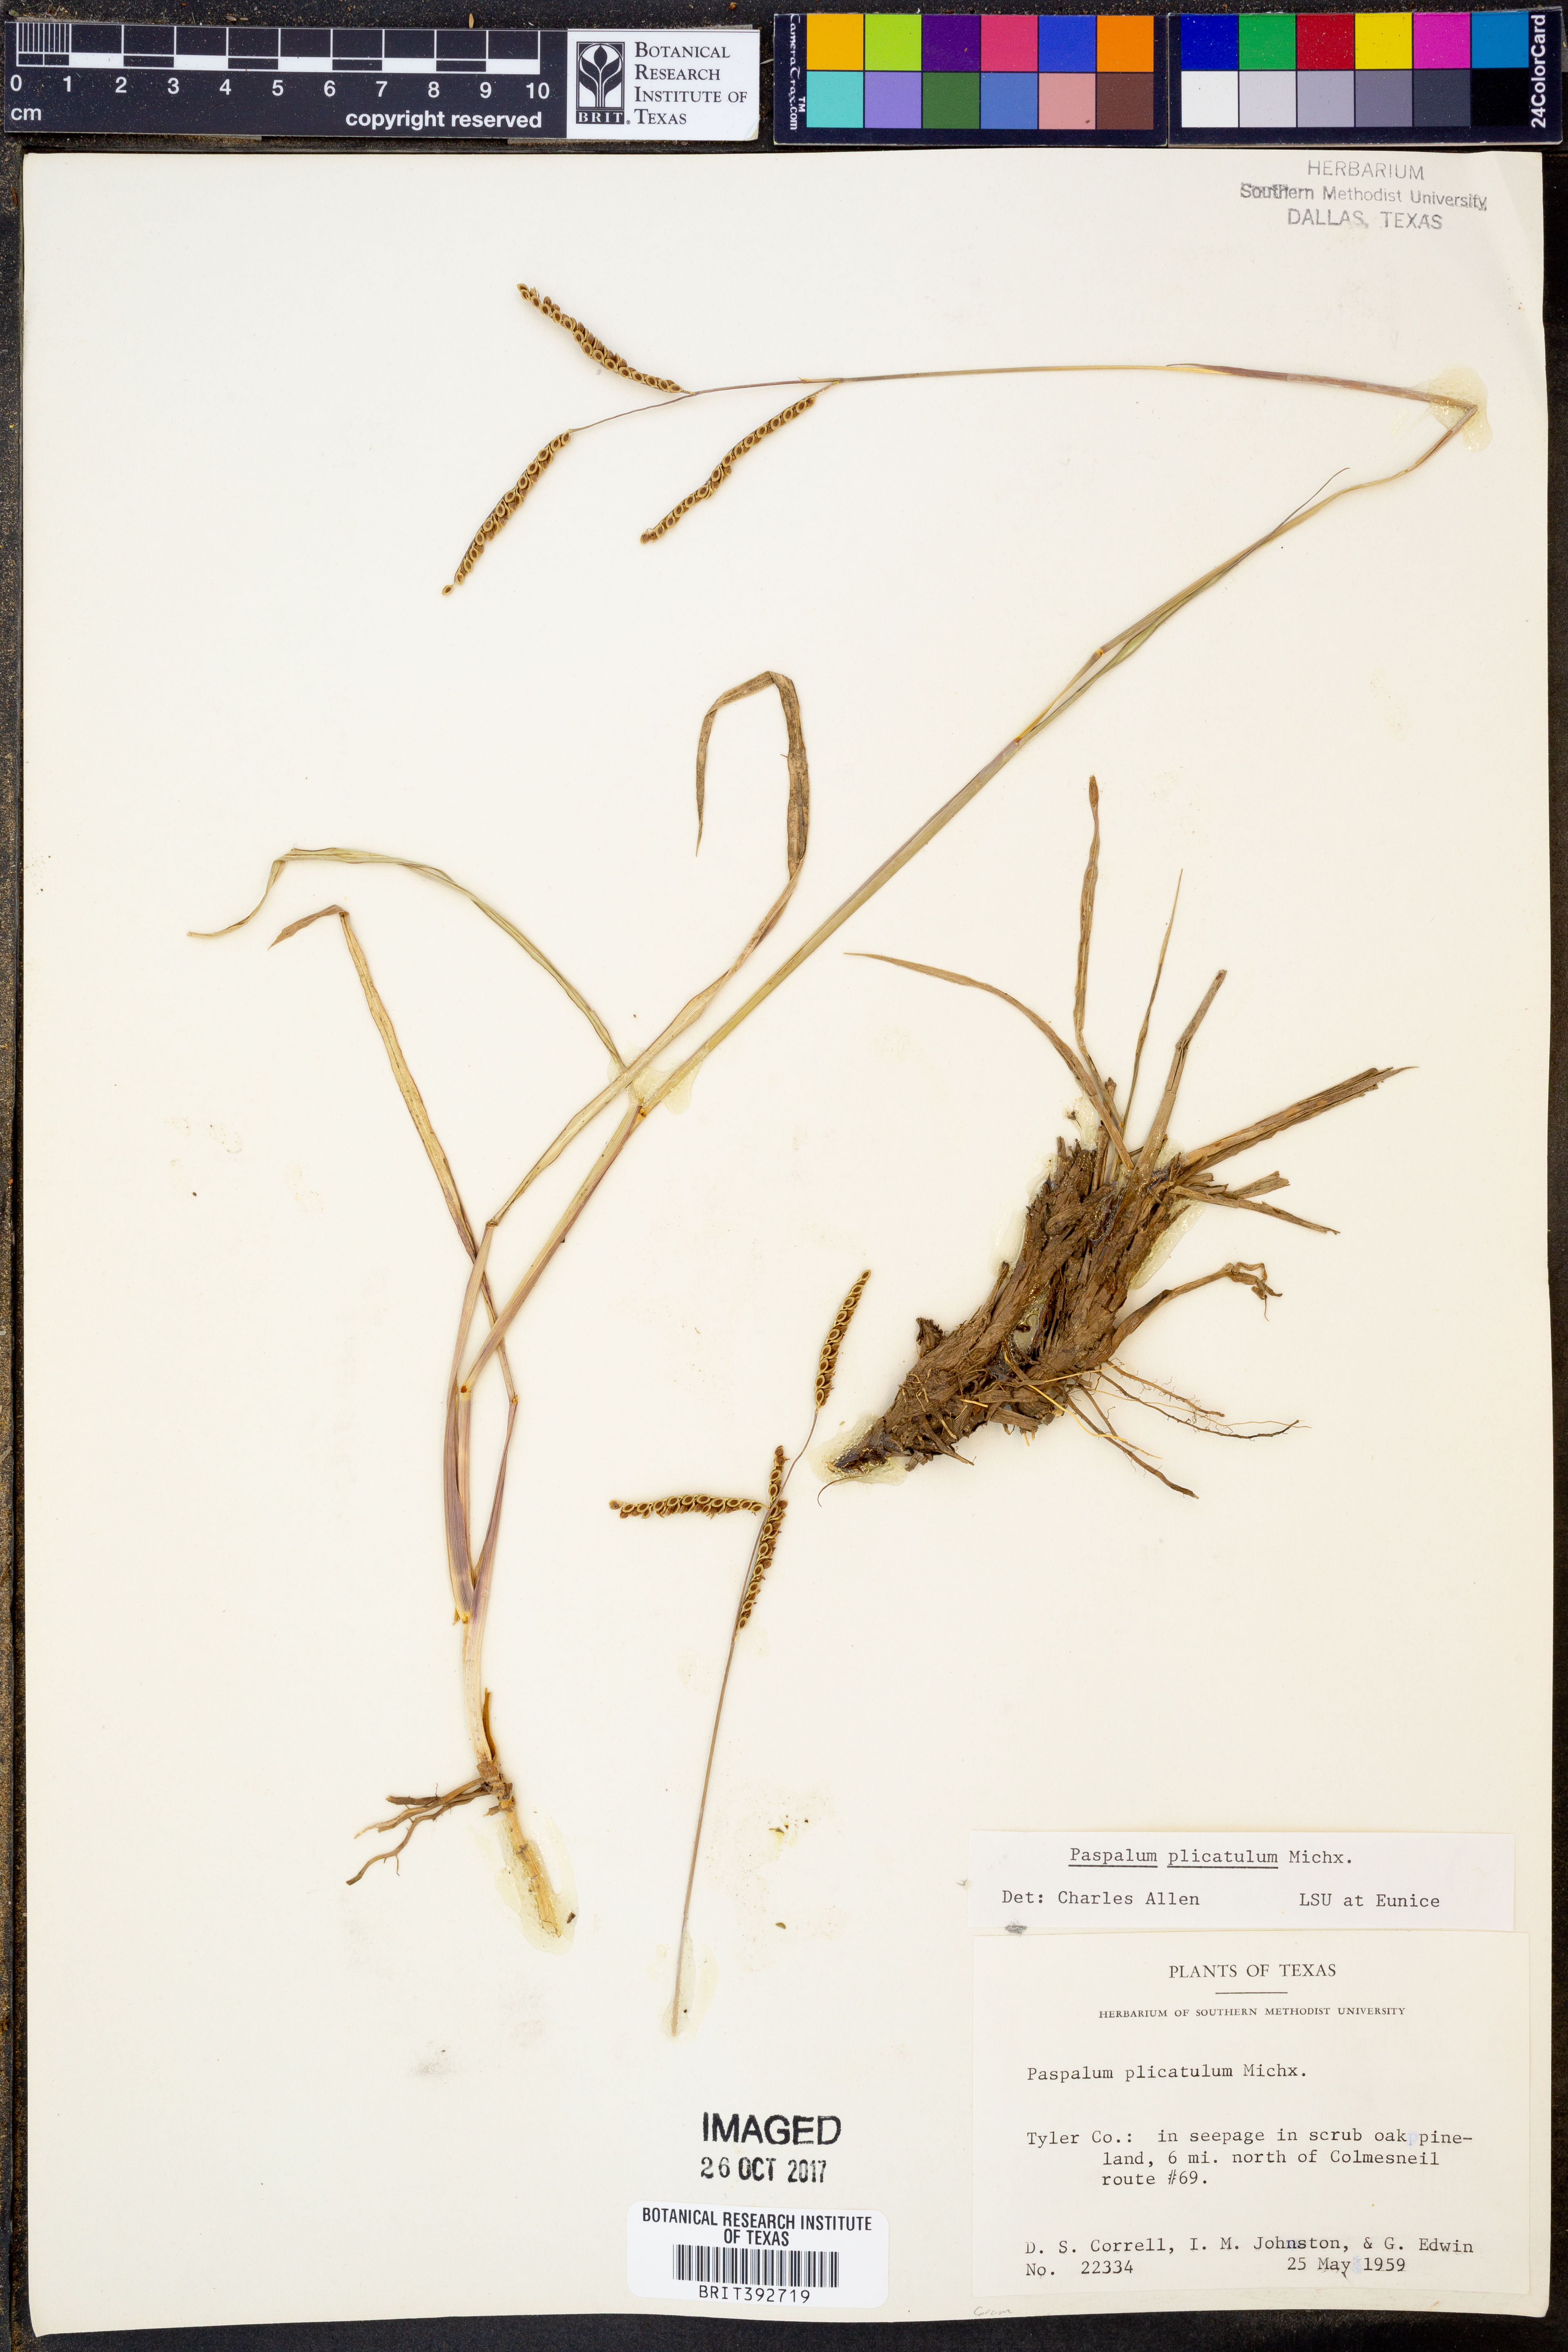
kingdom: Plantae
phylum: Tracheophyta
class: Liliopsida
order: Poales
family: Poaceae
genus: Paspalum
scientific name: Paspalum plicatulum
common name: Top paspalum
